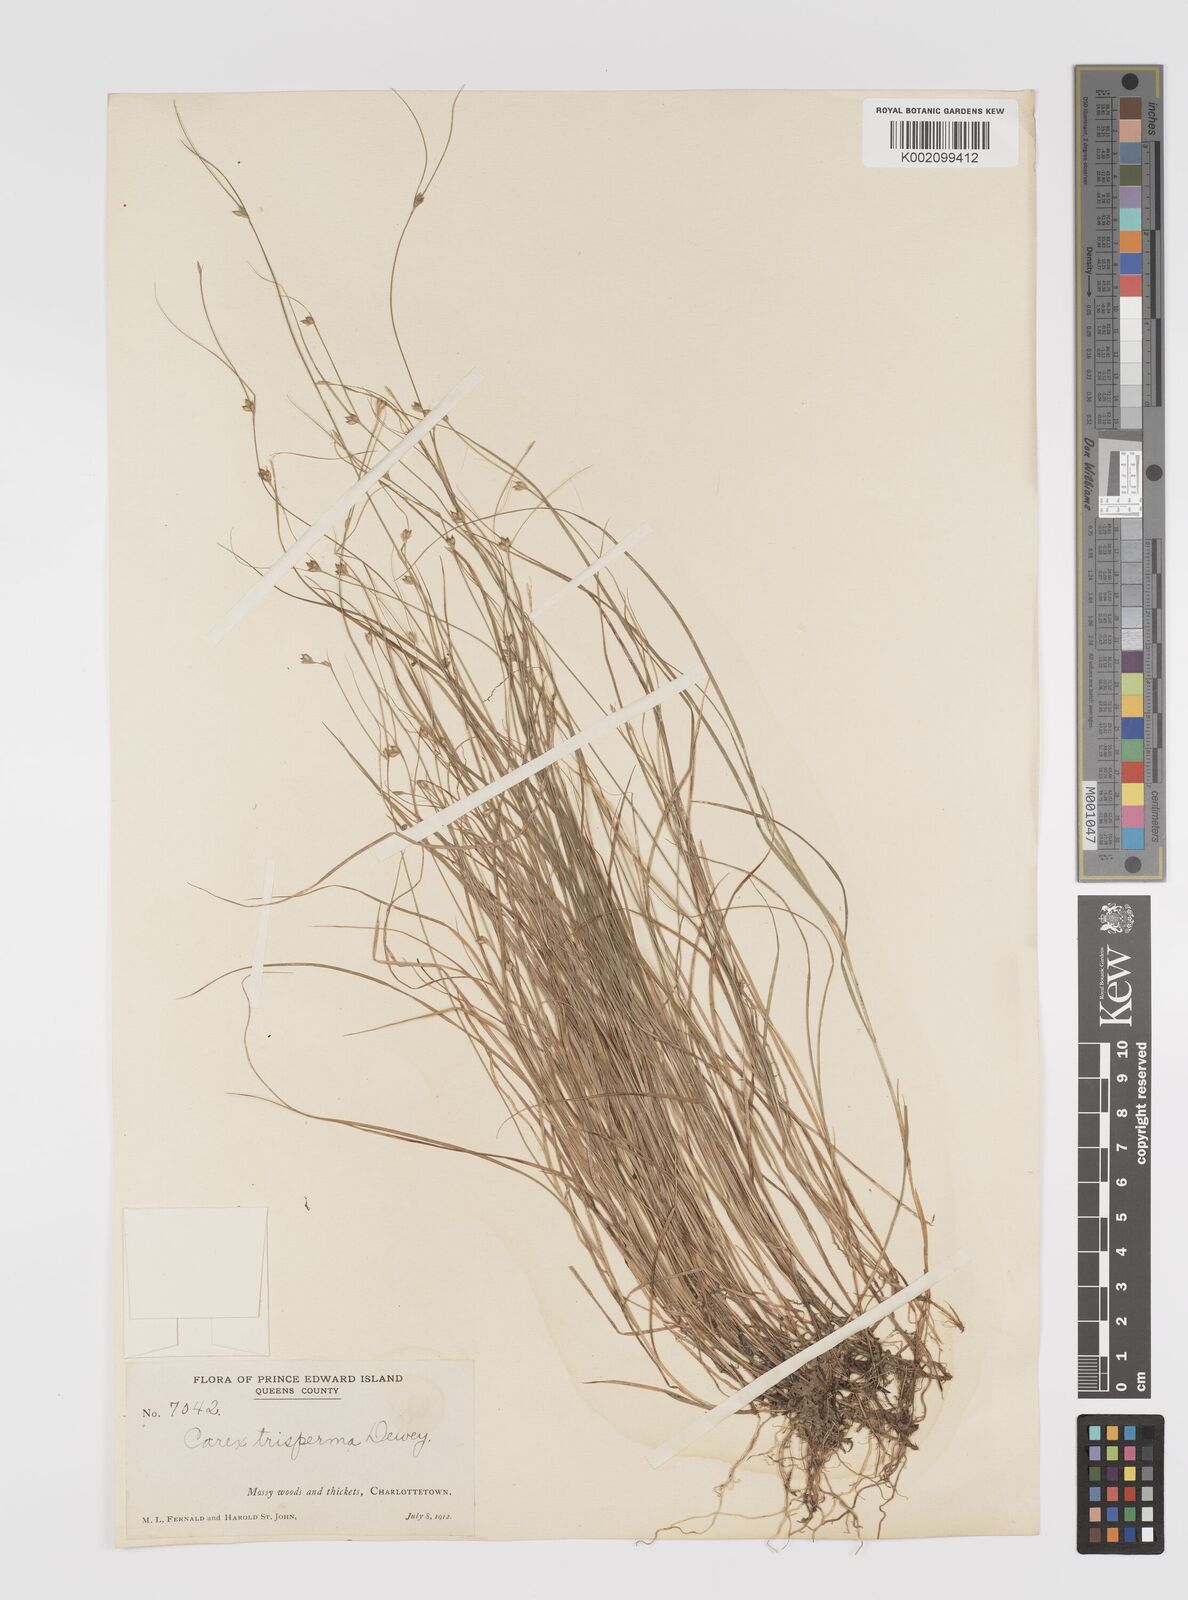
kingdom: Plantae
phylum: Tracheophyta
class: Liliopsida
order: Poales
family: Cyperaceae
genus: Carex
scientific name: Carex trisperma
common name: Three-seeded sedge
